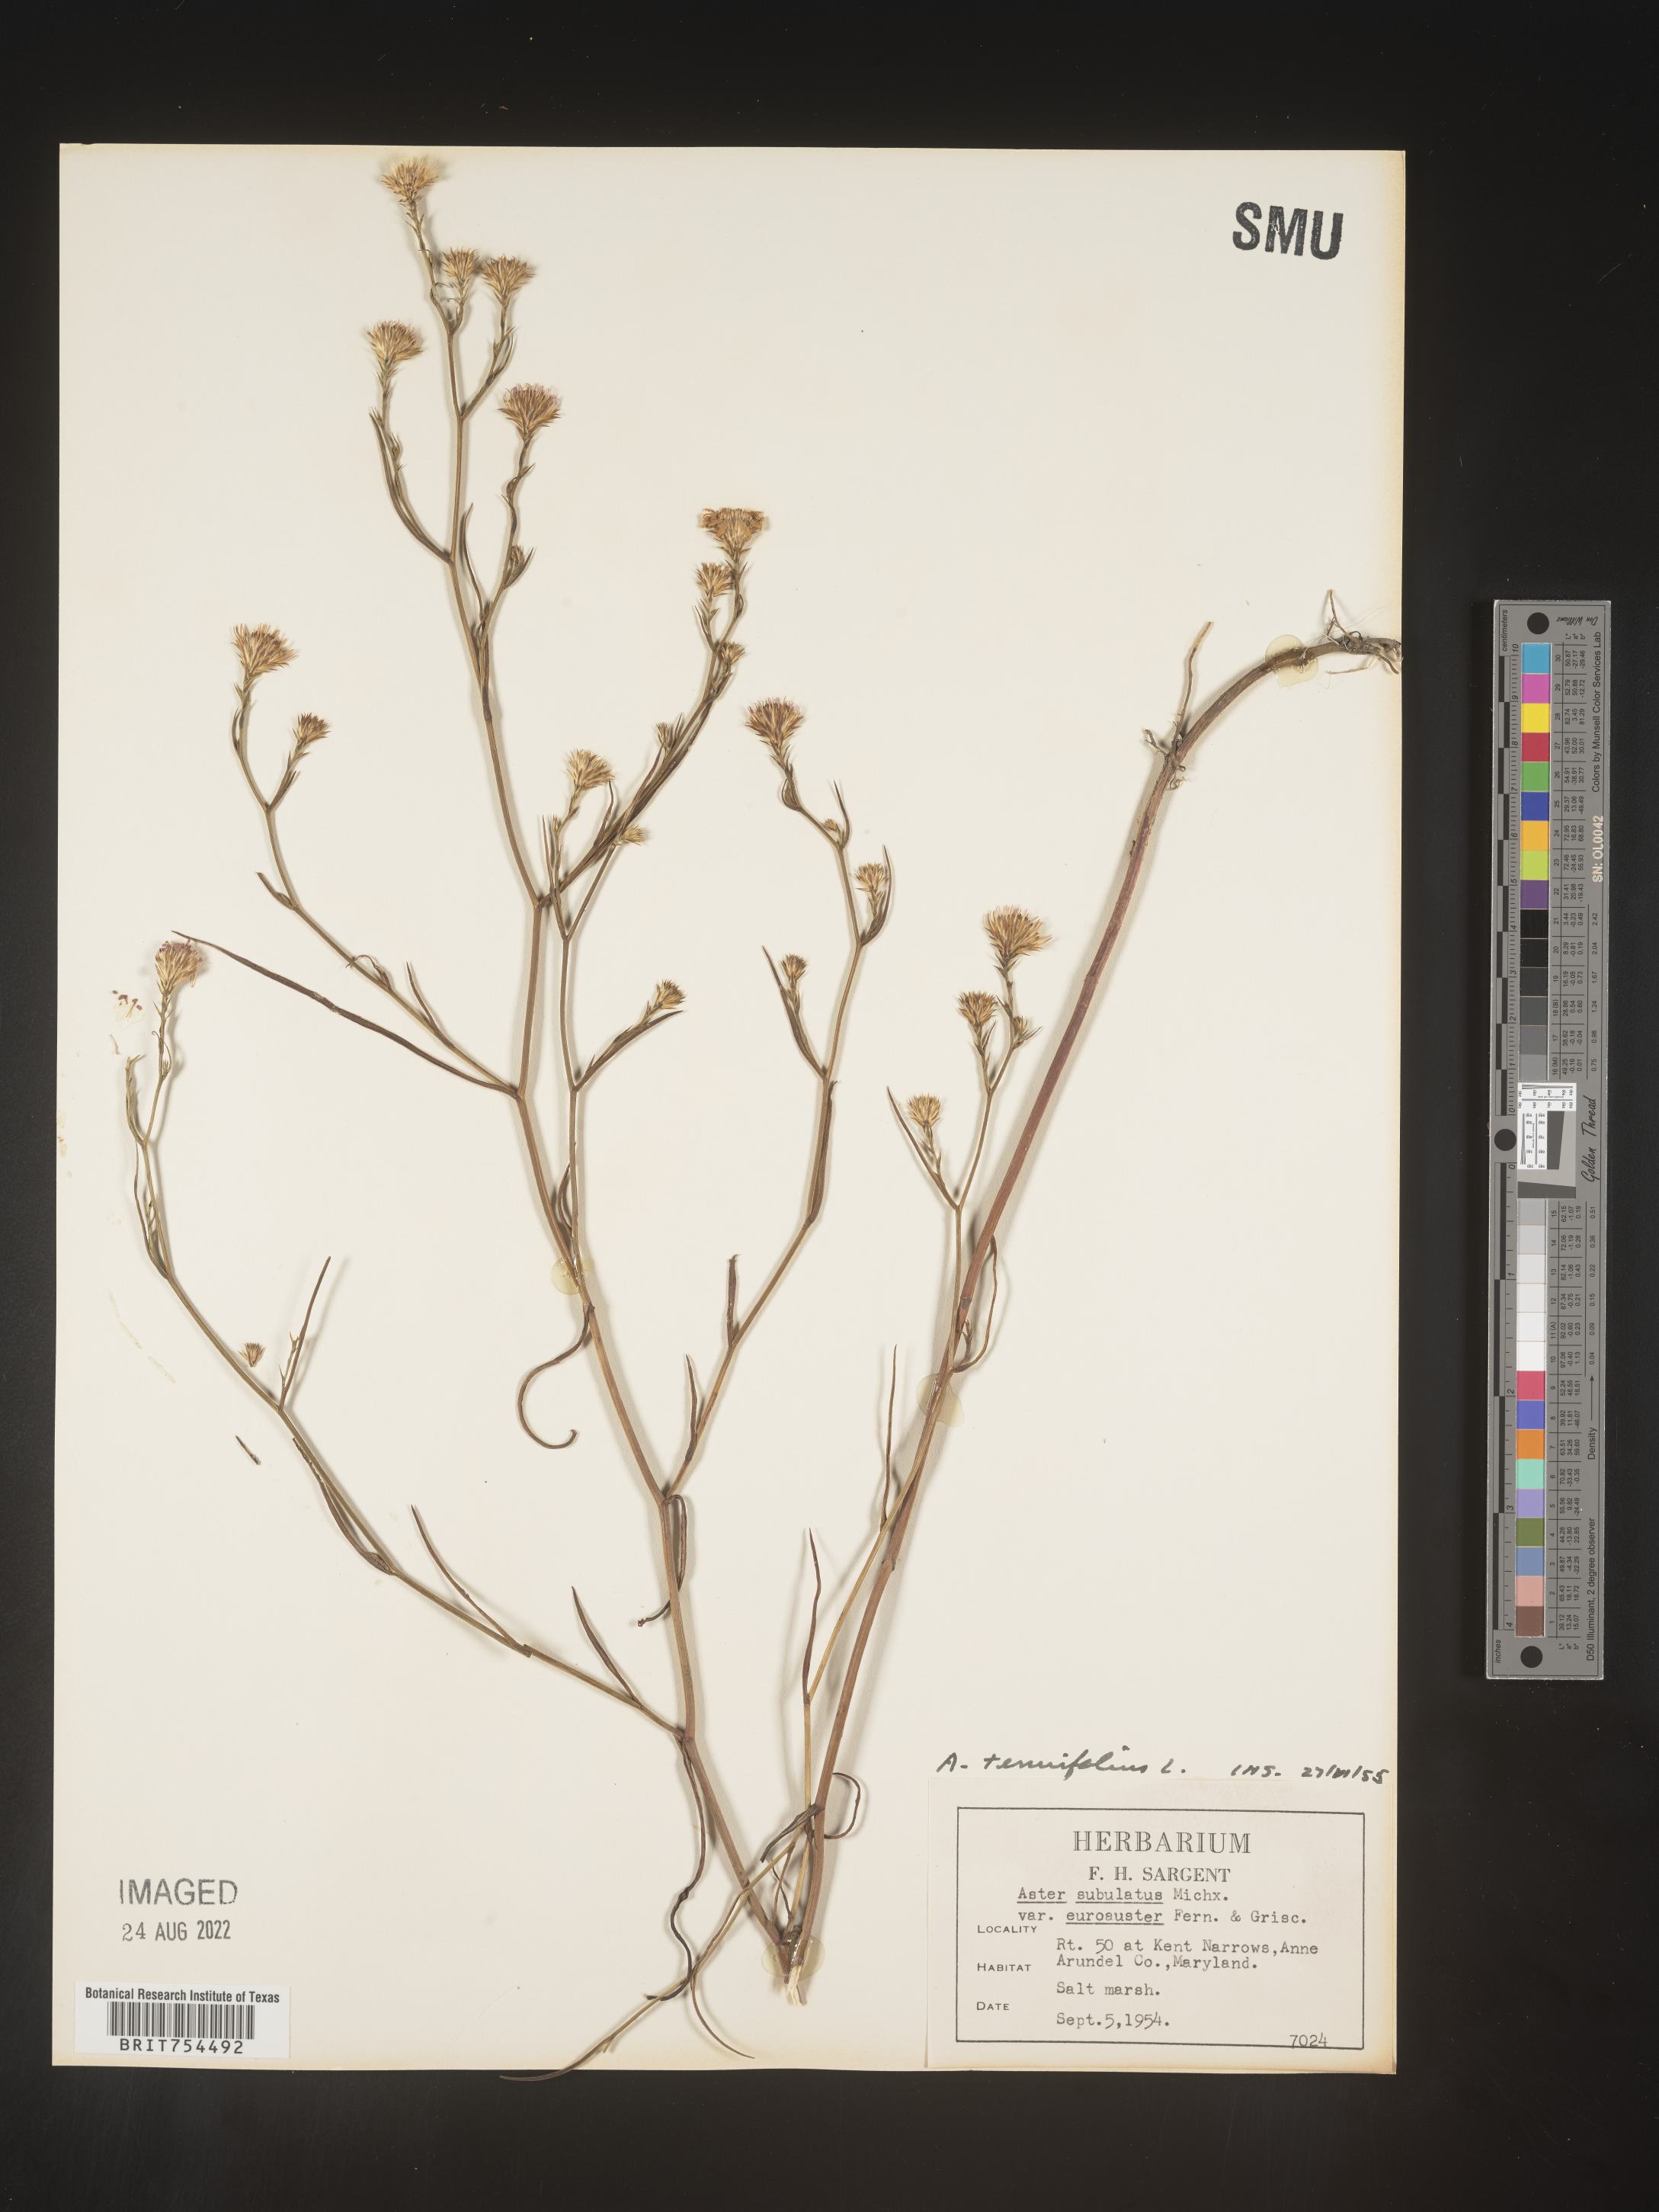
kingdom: Plantae
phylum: Tracheophyta
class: Magnoliopsida
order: Asterales
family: Asteraceae
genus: Symphyotrichum
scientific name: Symphyotrichum tenuifolium
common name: Perennial salt-marsh aster
